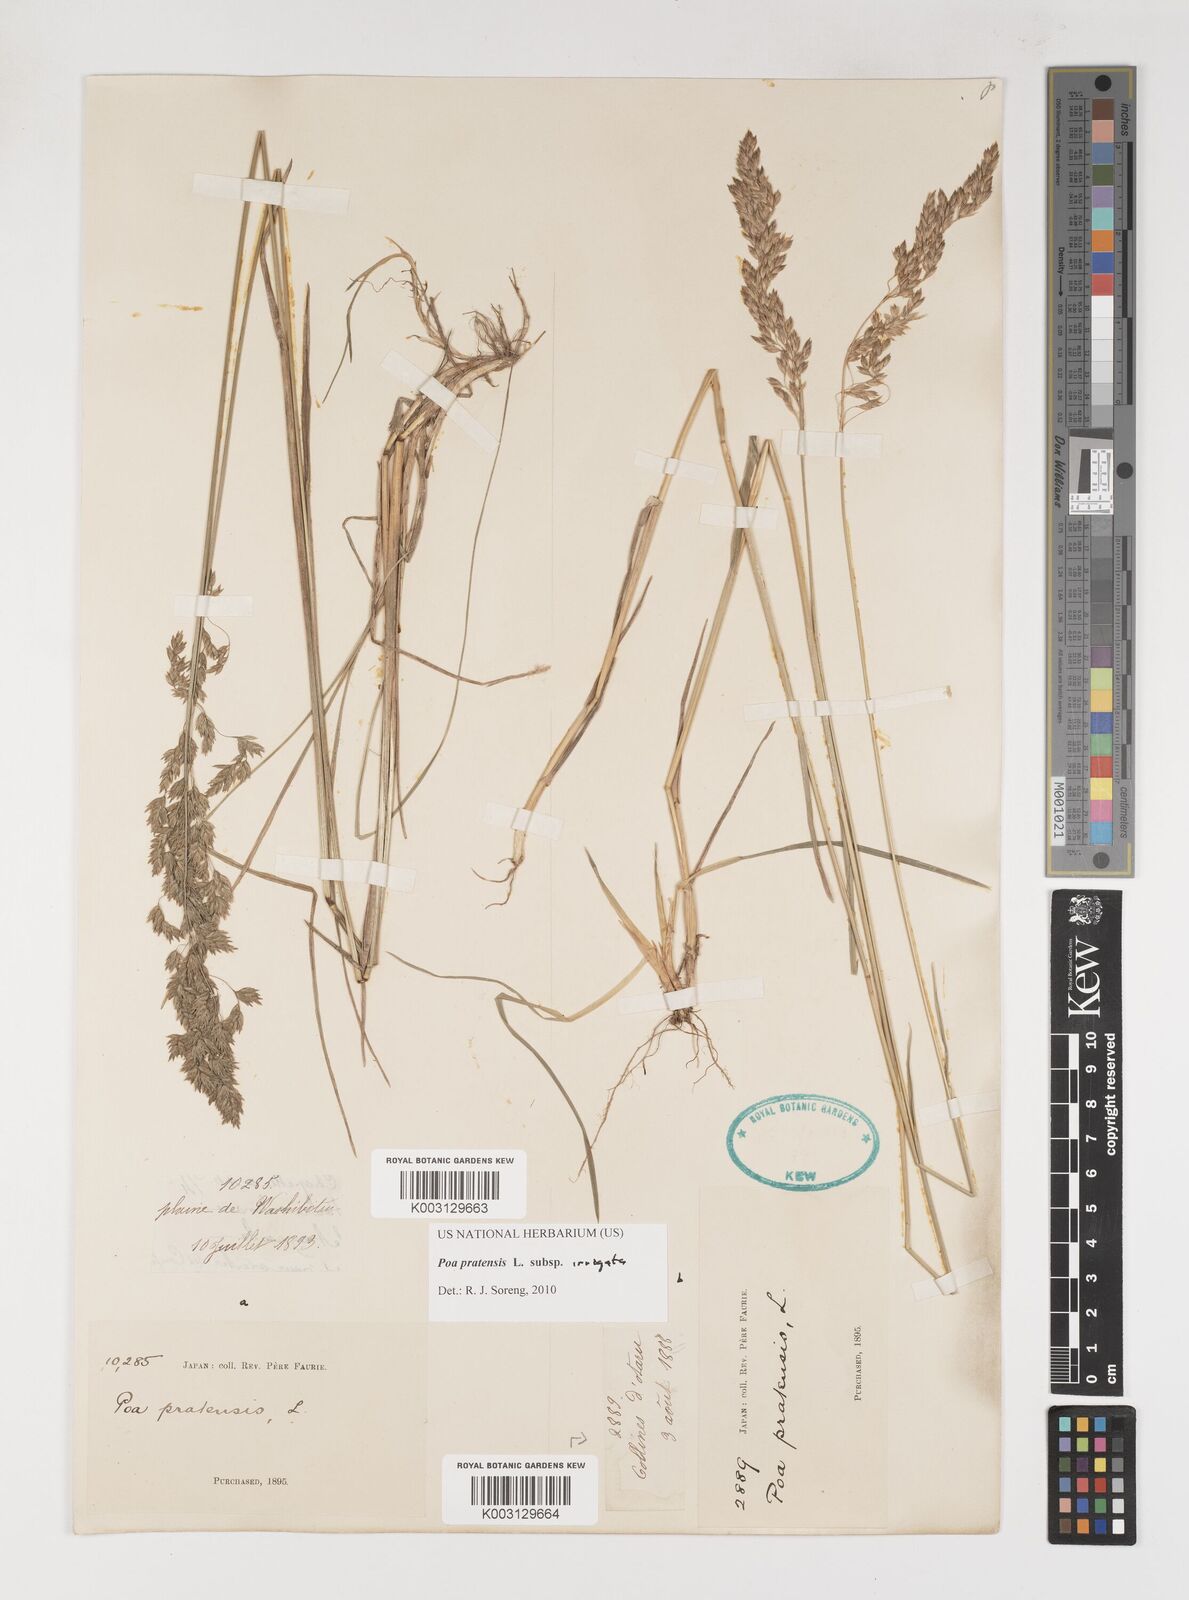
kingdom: Plantae
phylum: Tracheophyta
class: Liliopsida
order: Poales
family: Poaceae
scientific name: Poaceae
